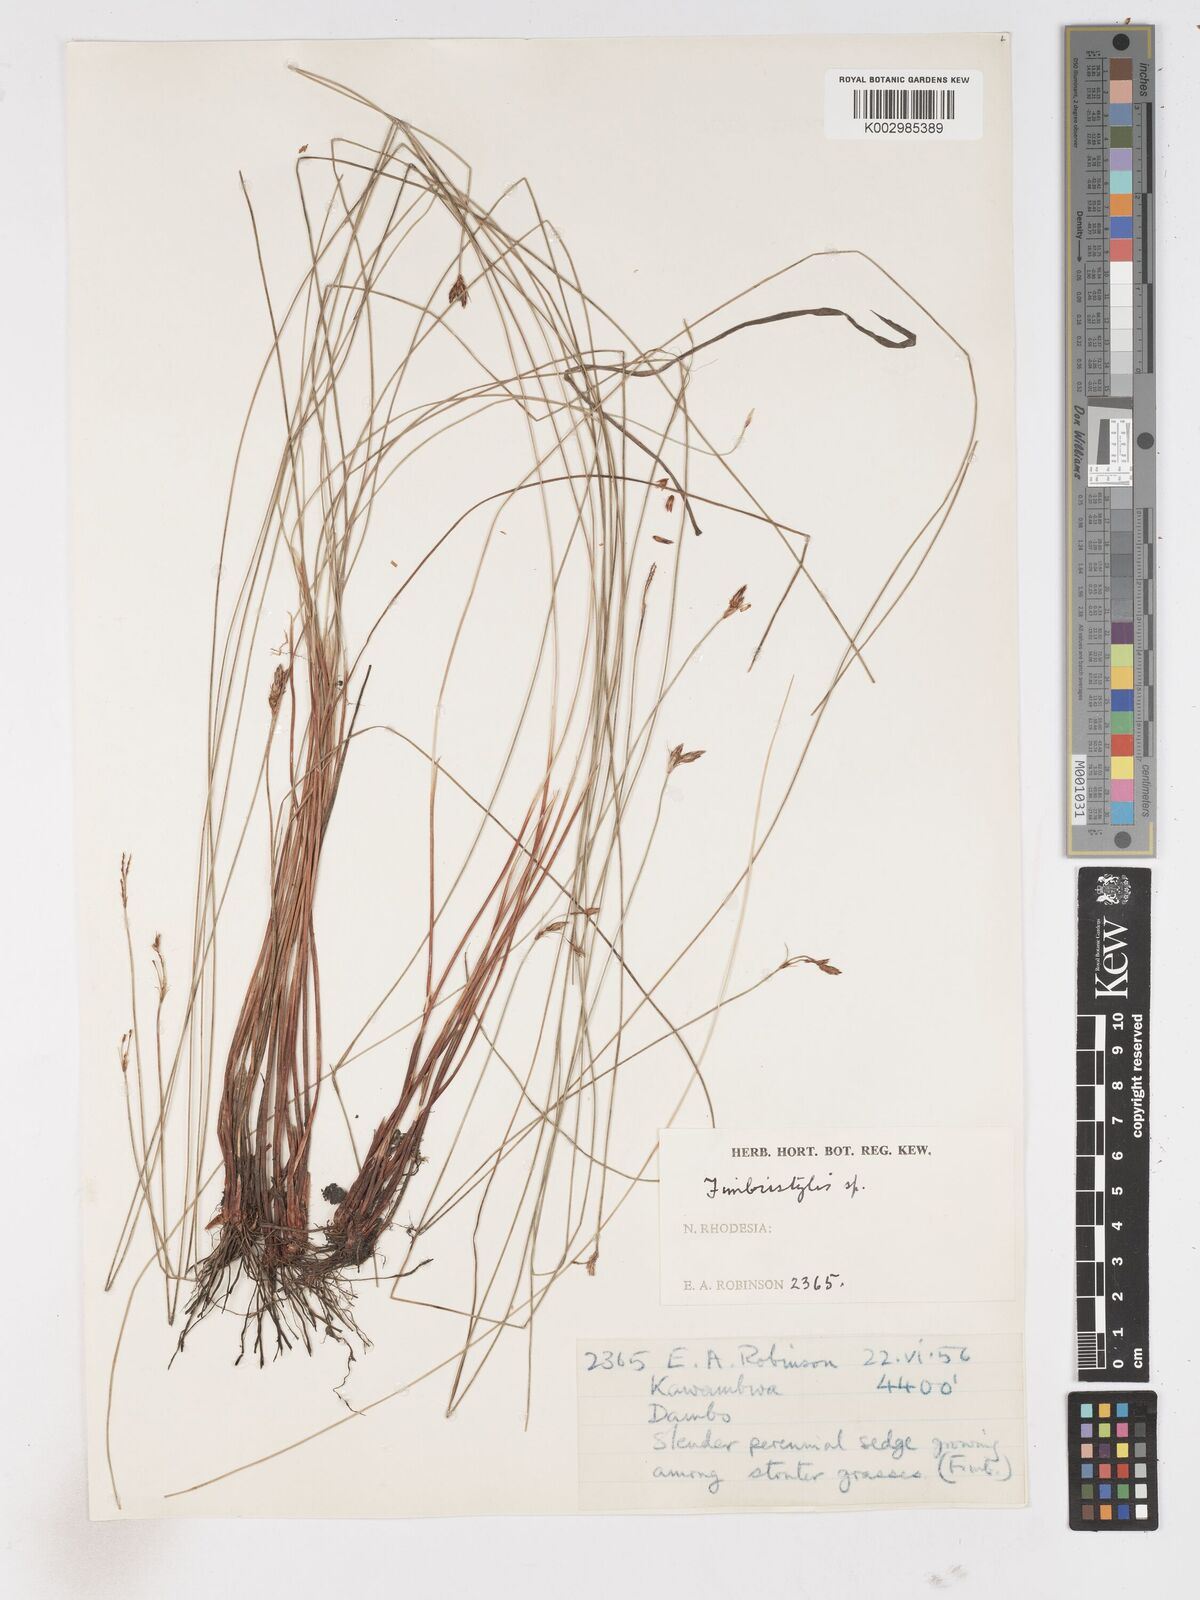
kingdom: Plantae
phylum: Tracheophyta
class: Liliopsida
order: Poales
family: Cyperaceae
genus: Fimbristylis
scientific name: Fimbristylis
